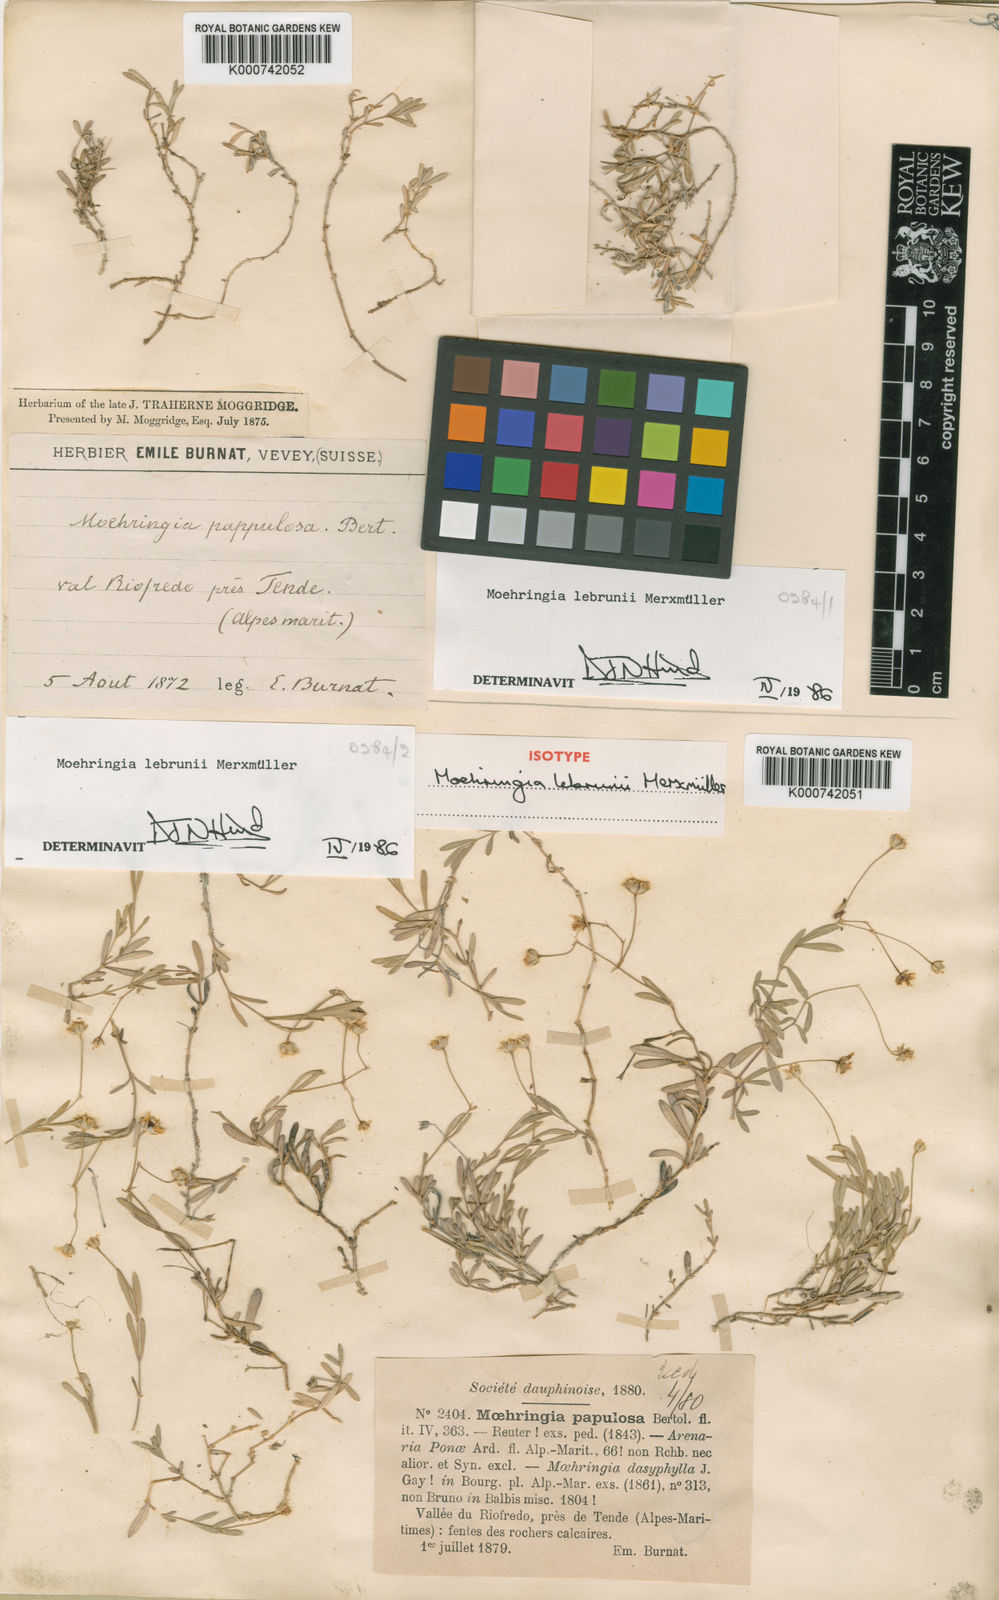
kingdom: Plantae
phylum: Tracheophyta
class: Magnoliopsida
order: Caryophyllales
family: Caryophyllaceae
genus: Moehringia
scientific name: Moehringia lebrunii
